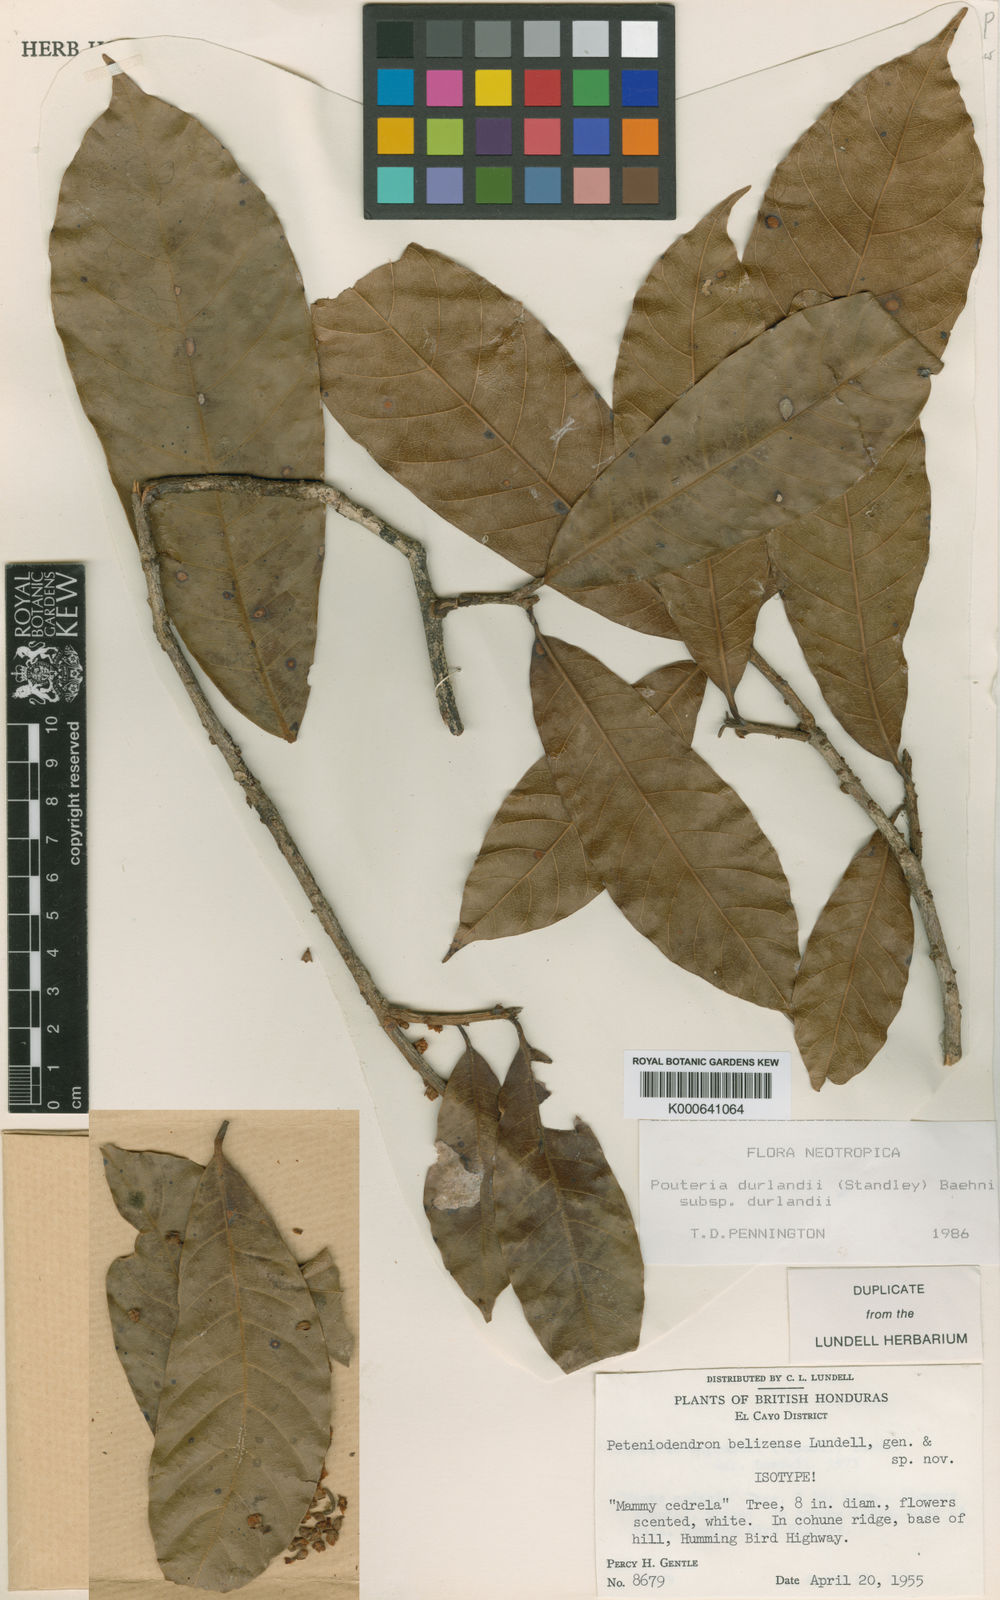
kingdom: Plantae
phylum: Tracheophyta
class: Magnoliopsida
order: Ericales
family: Sapotaceae
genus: Pouteria
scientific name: Pouteria durlandii
